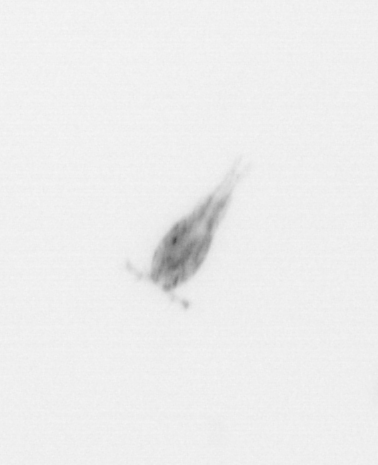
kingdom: Animalia
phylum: Arthropoda
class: Copepoda
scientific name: Copepoda
